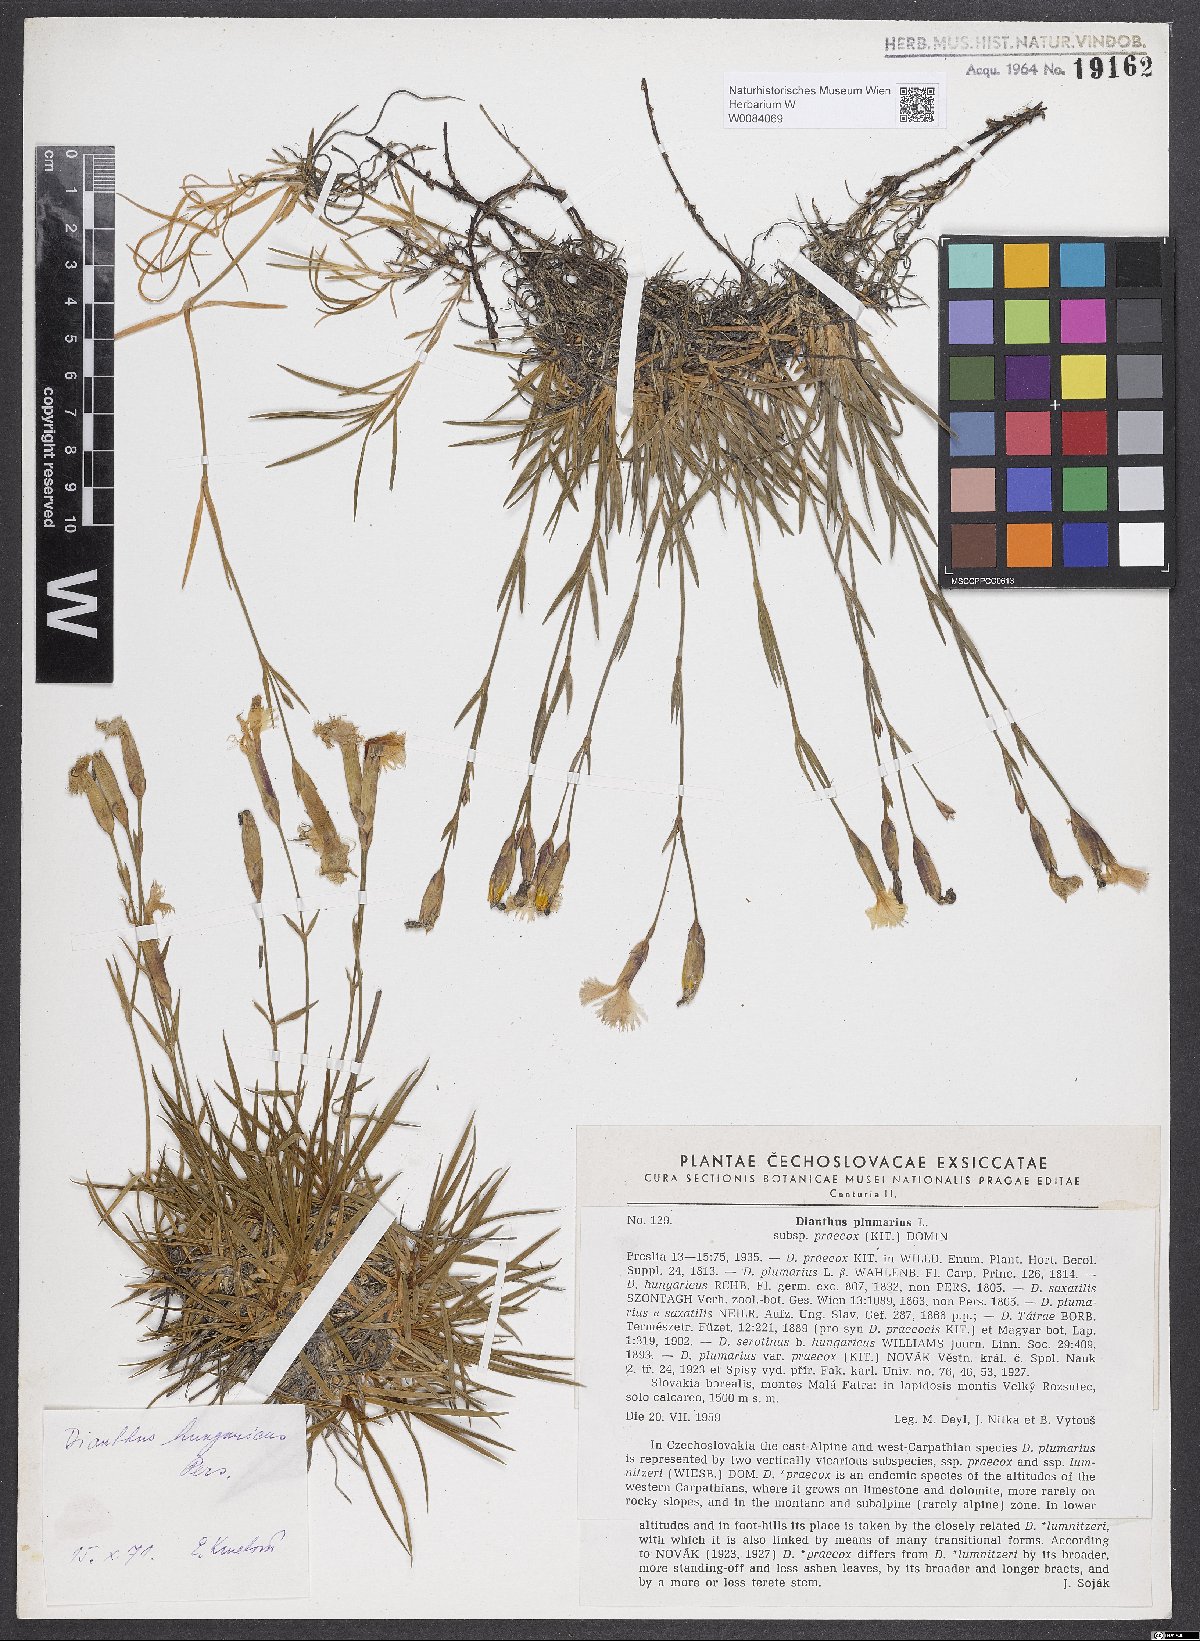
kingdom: Plantae
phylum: Tracheophyta
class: Magnoliopsida
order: Caryophyllales
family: Caryophyllaceae
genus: Dianthus
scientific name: Dianthus plumarius
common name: Pink
